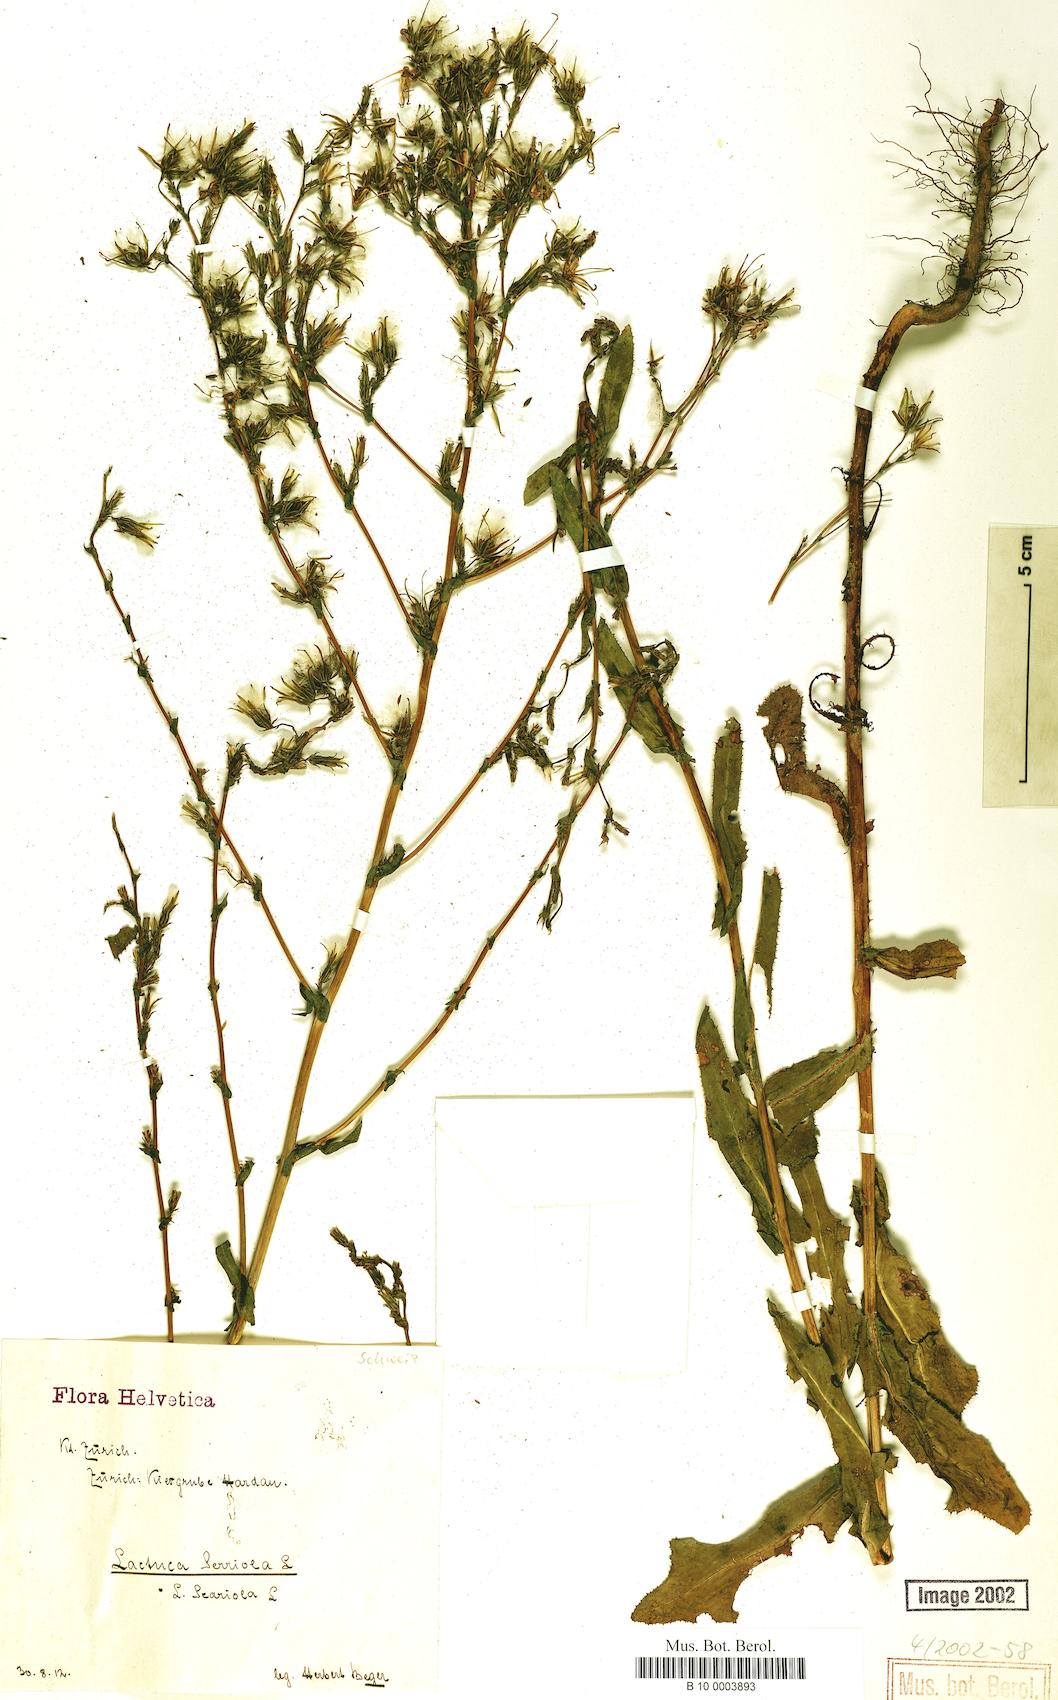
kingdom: Plantae
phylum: Tracheophyta
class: Magnoliopsida
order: Asterales
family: Asteraceae
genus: Lactuca
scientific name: Lactuca serriola
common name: Prickly lettuce
